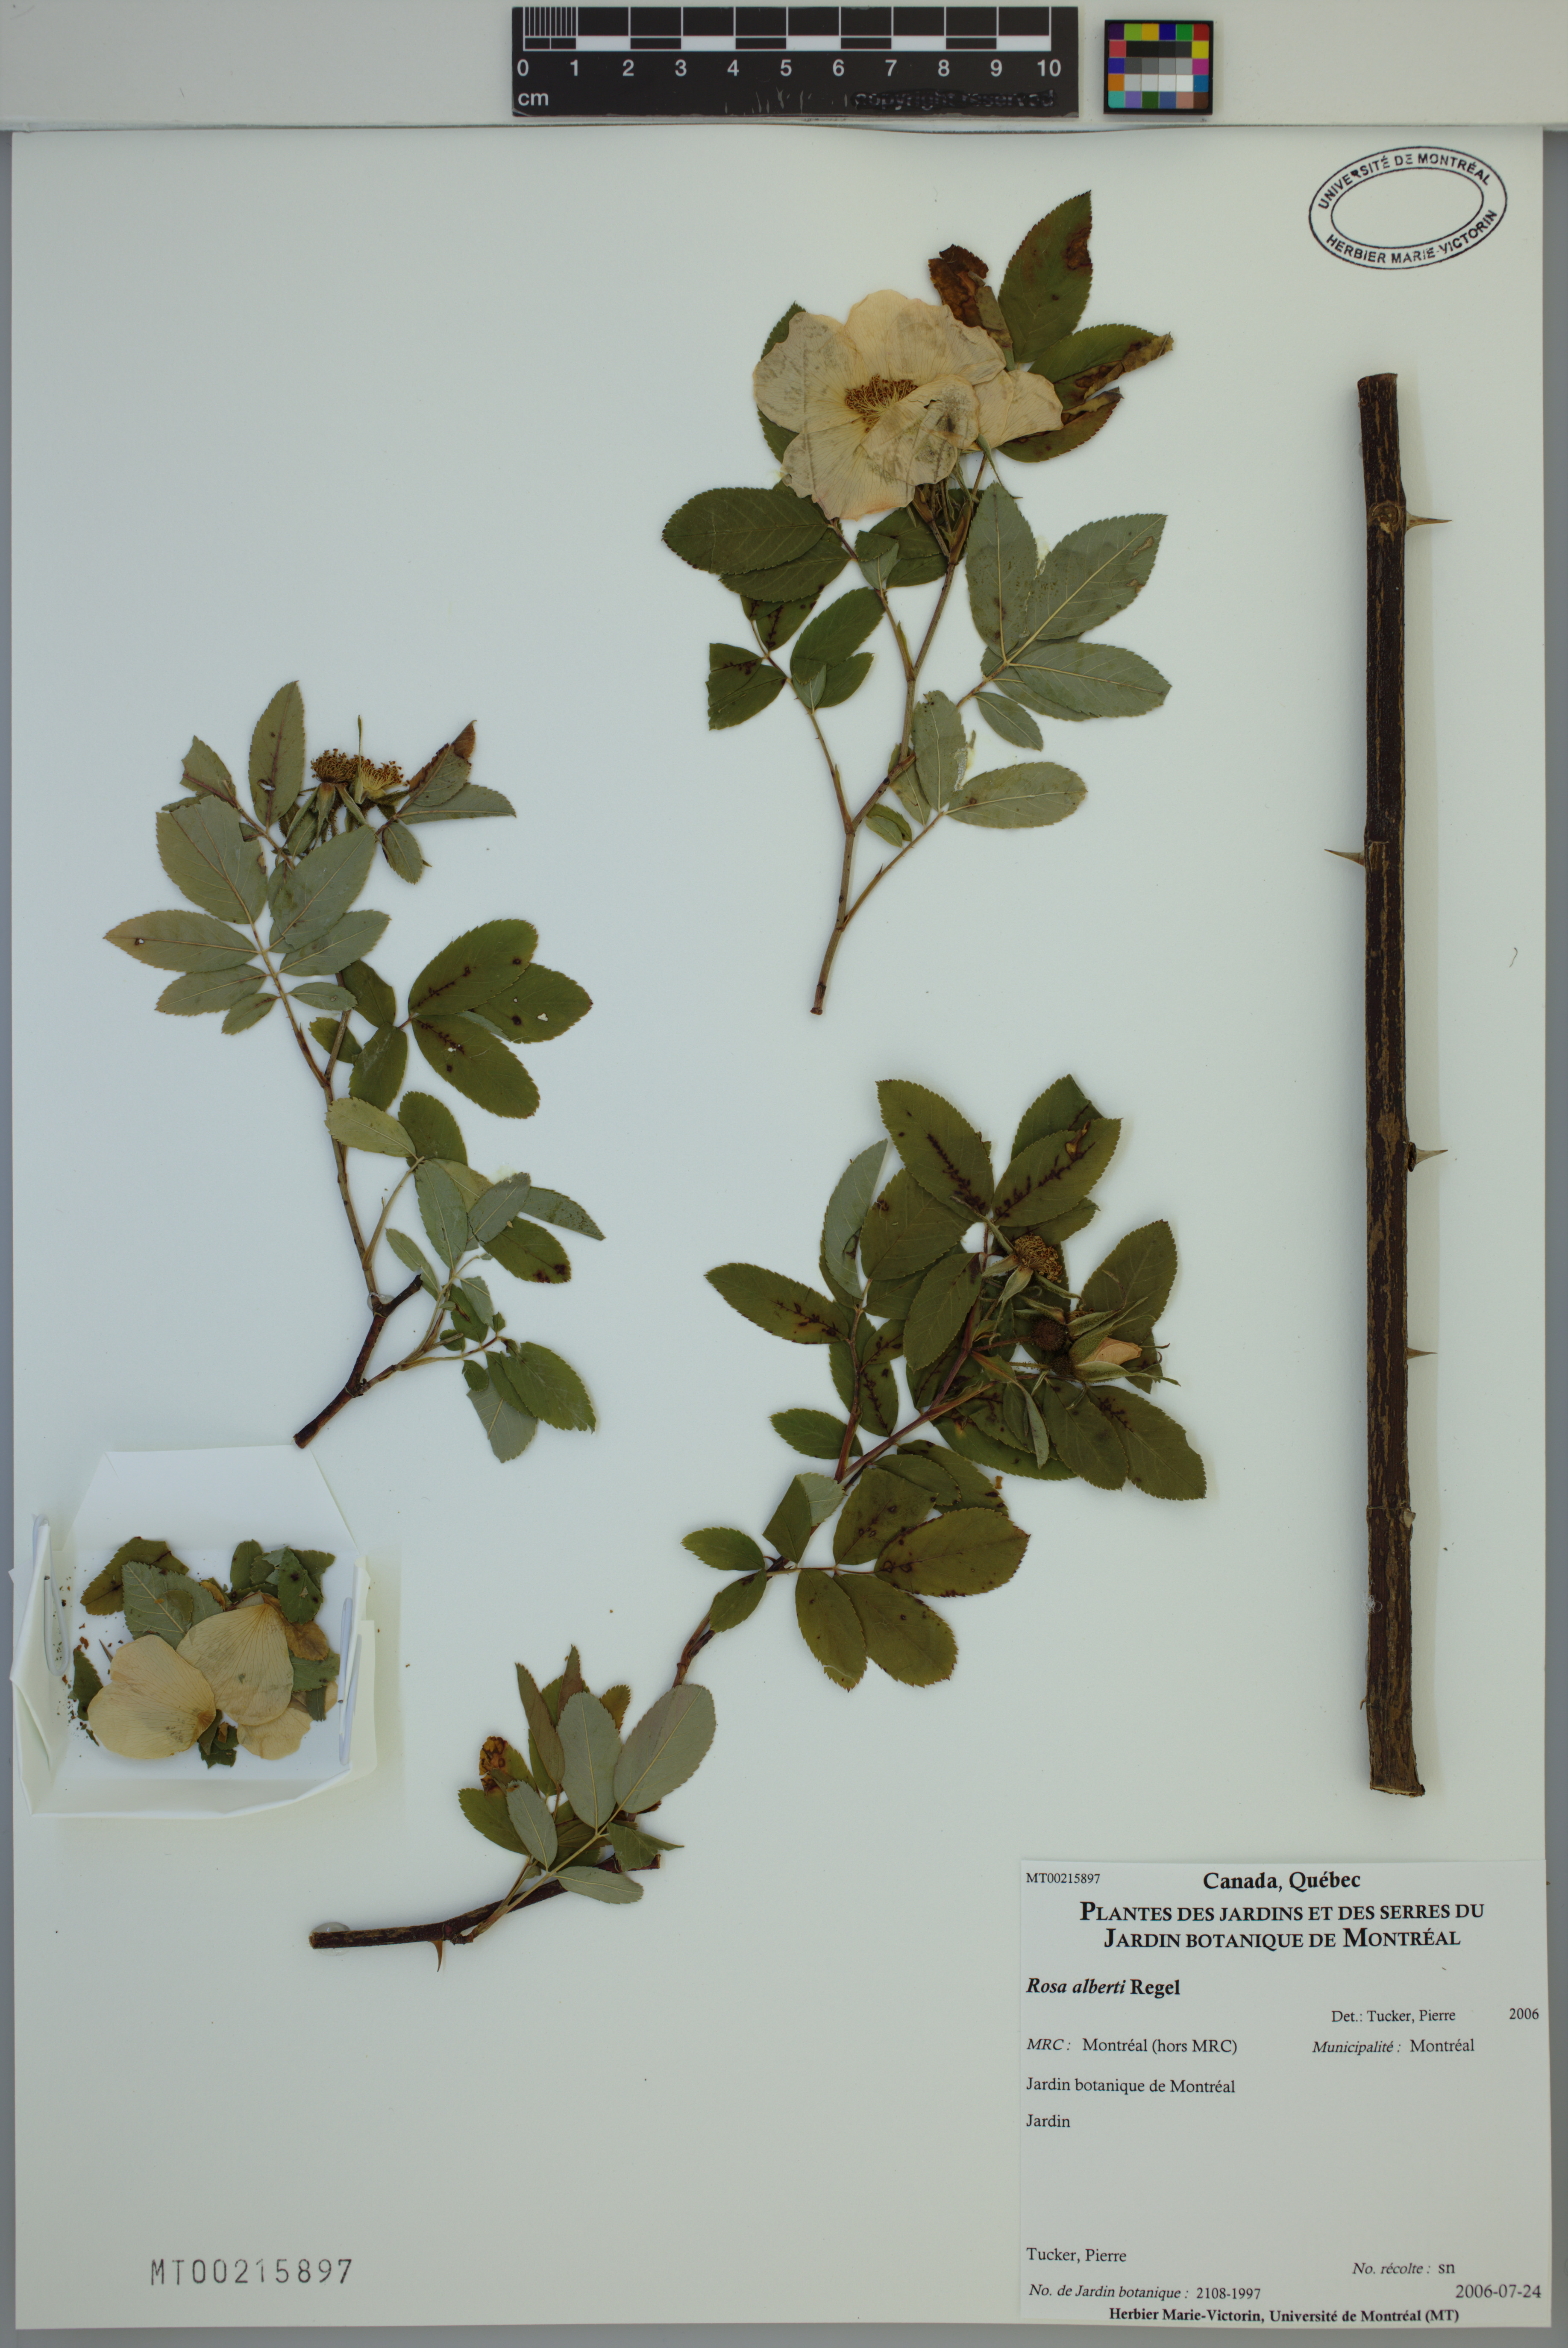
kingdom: Plantae
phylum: Tracheophyta
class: Magnoliopsida
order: Rosales
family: Rosaceae
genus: Rosa
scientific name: Rosa alberti
